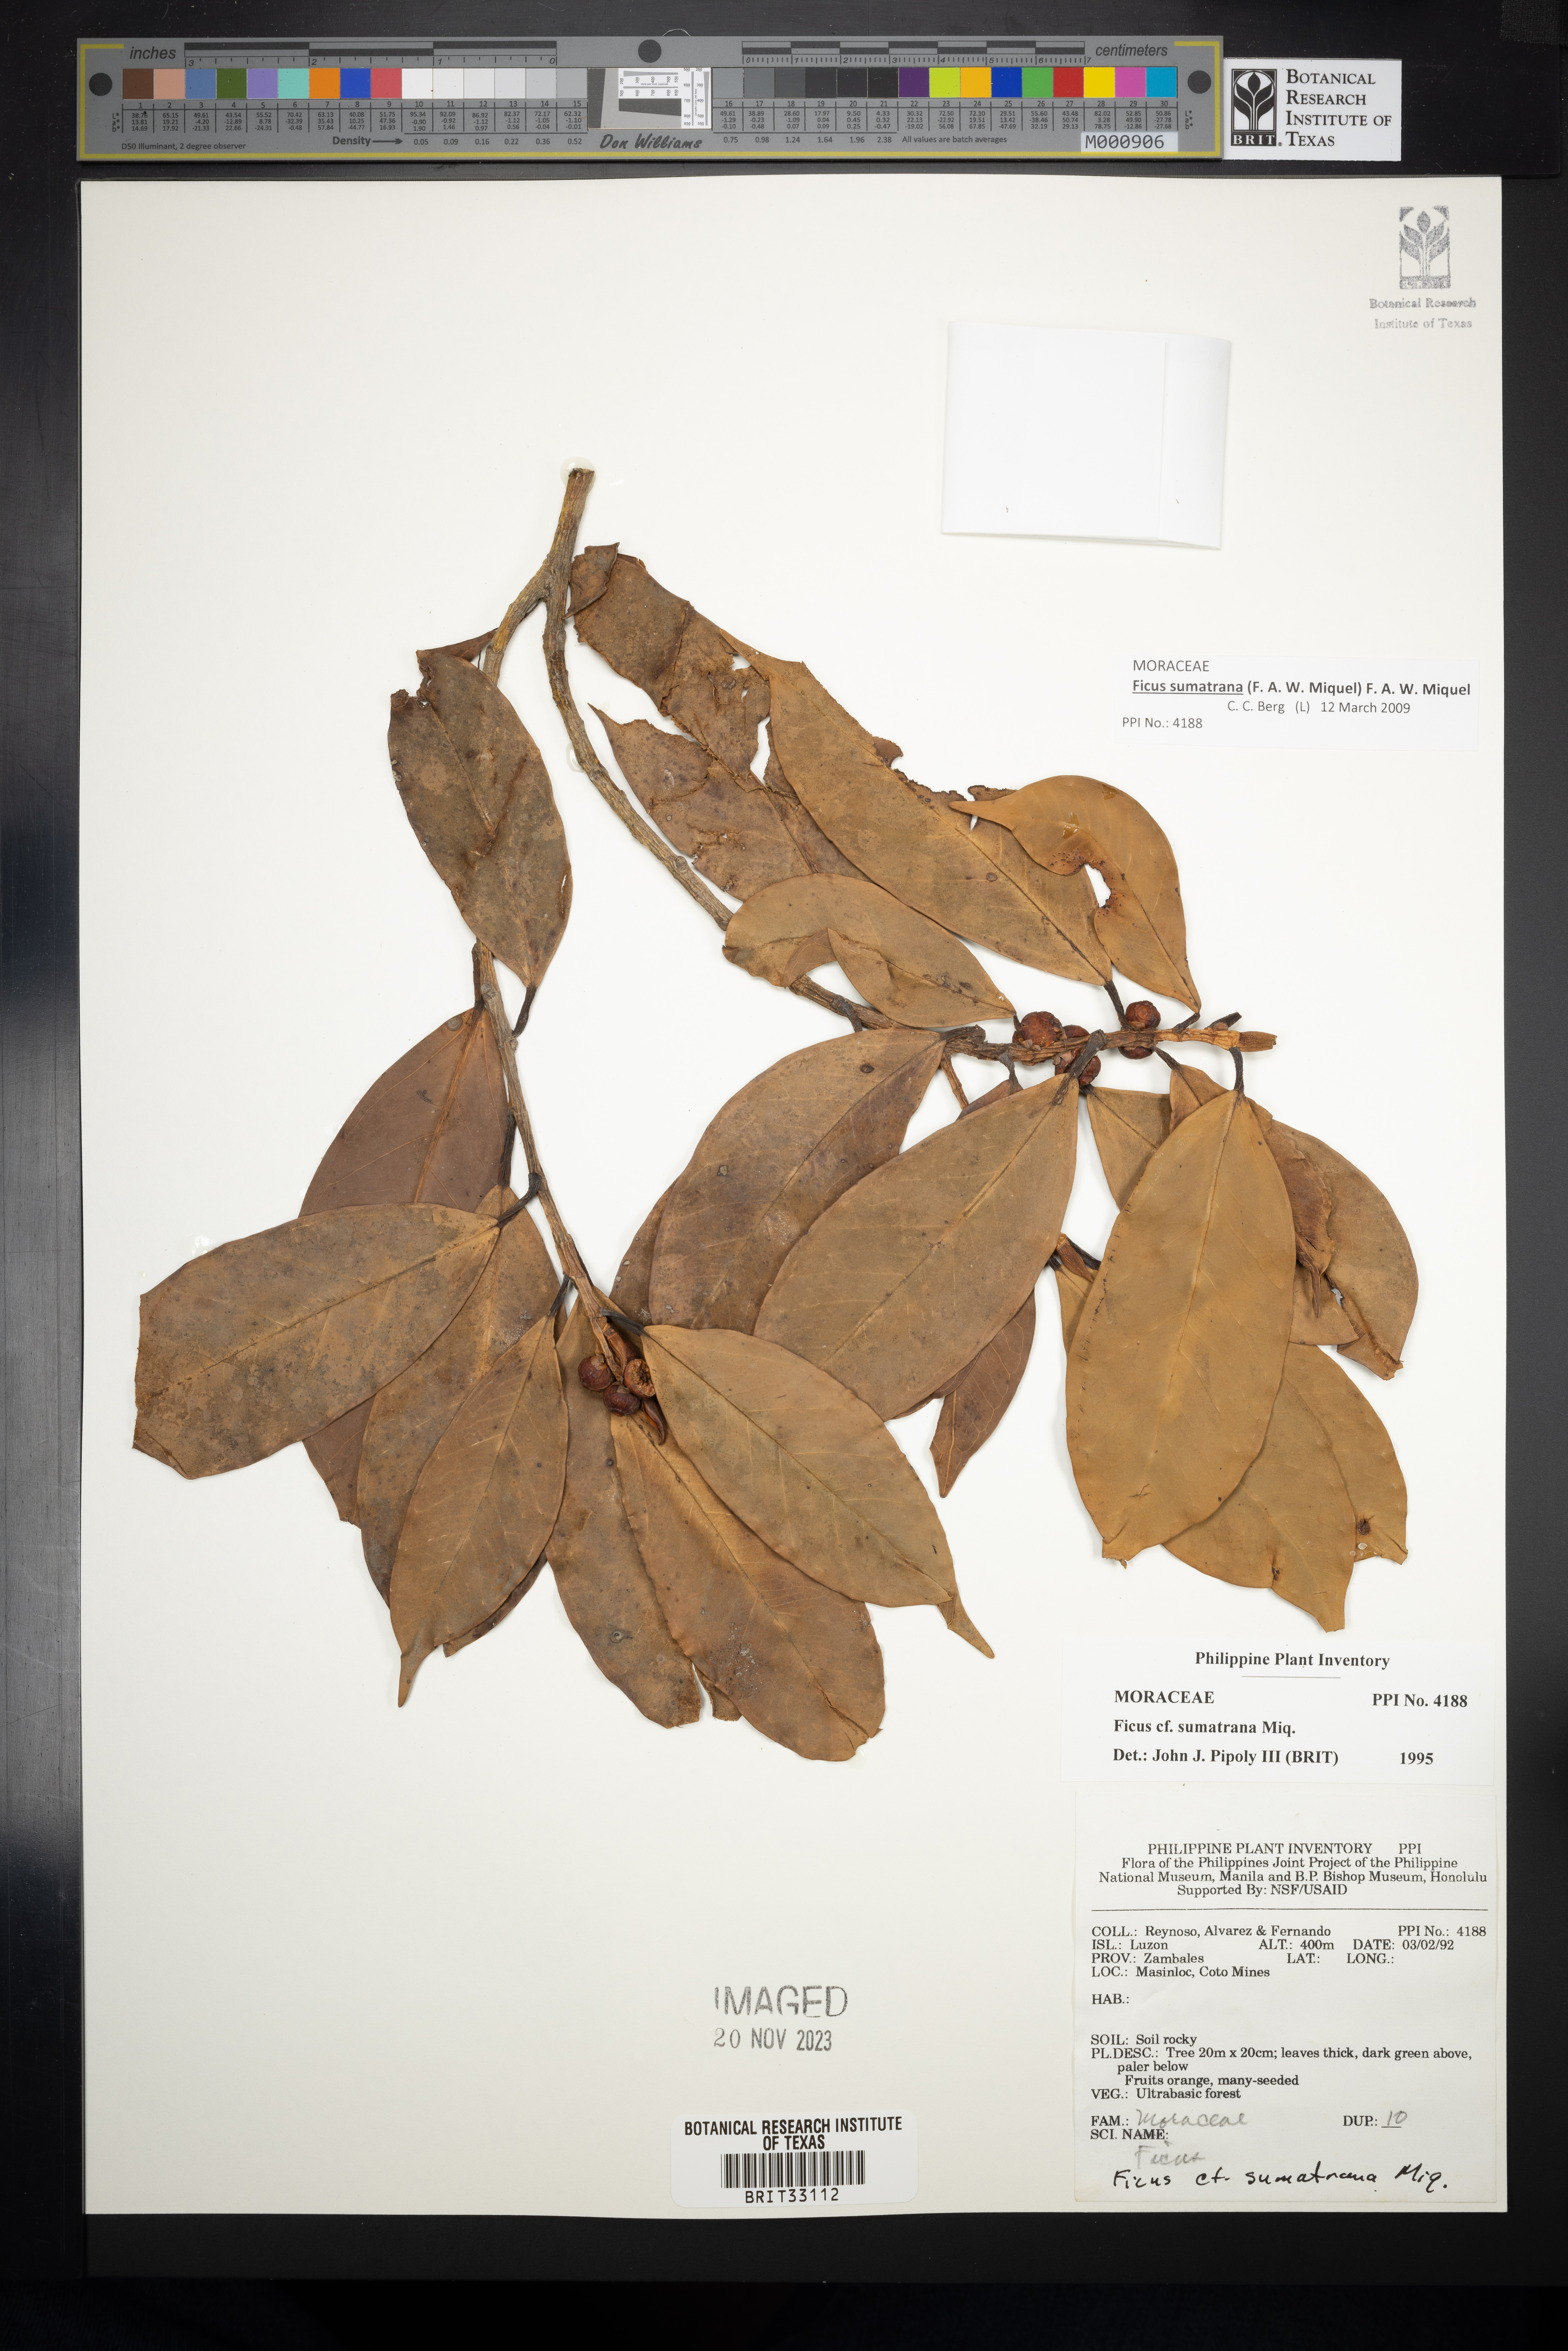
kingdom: Plantae
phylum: Tracheophyta
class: Magnoliopsida
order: Rosales
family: Moraceae
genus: Ficus
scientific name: Ficus sumatrana
